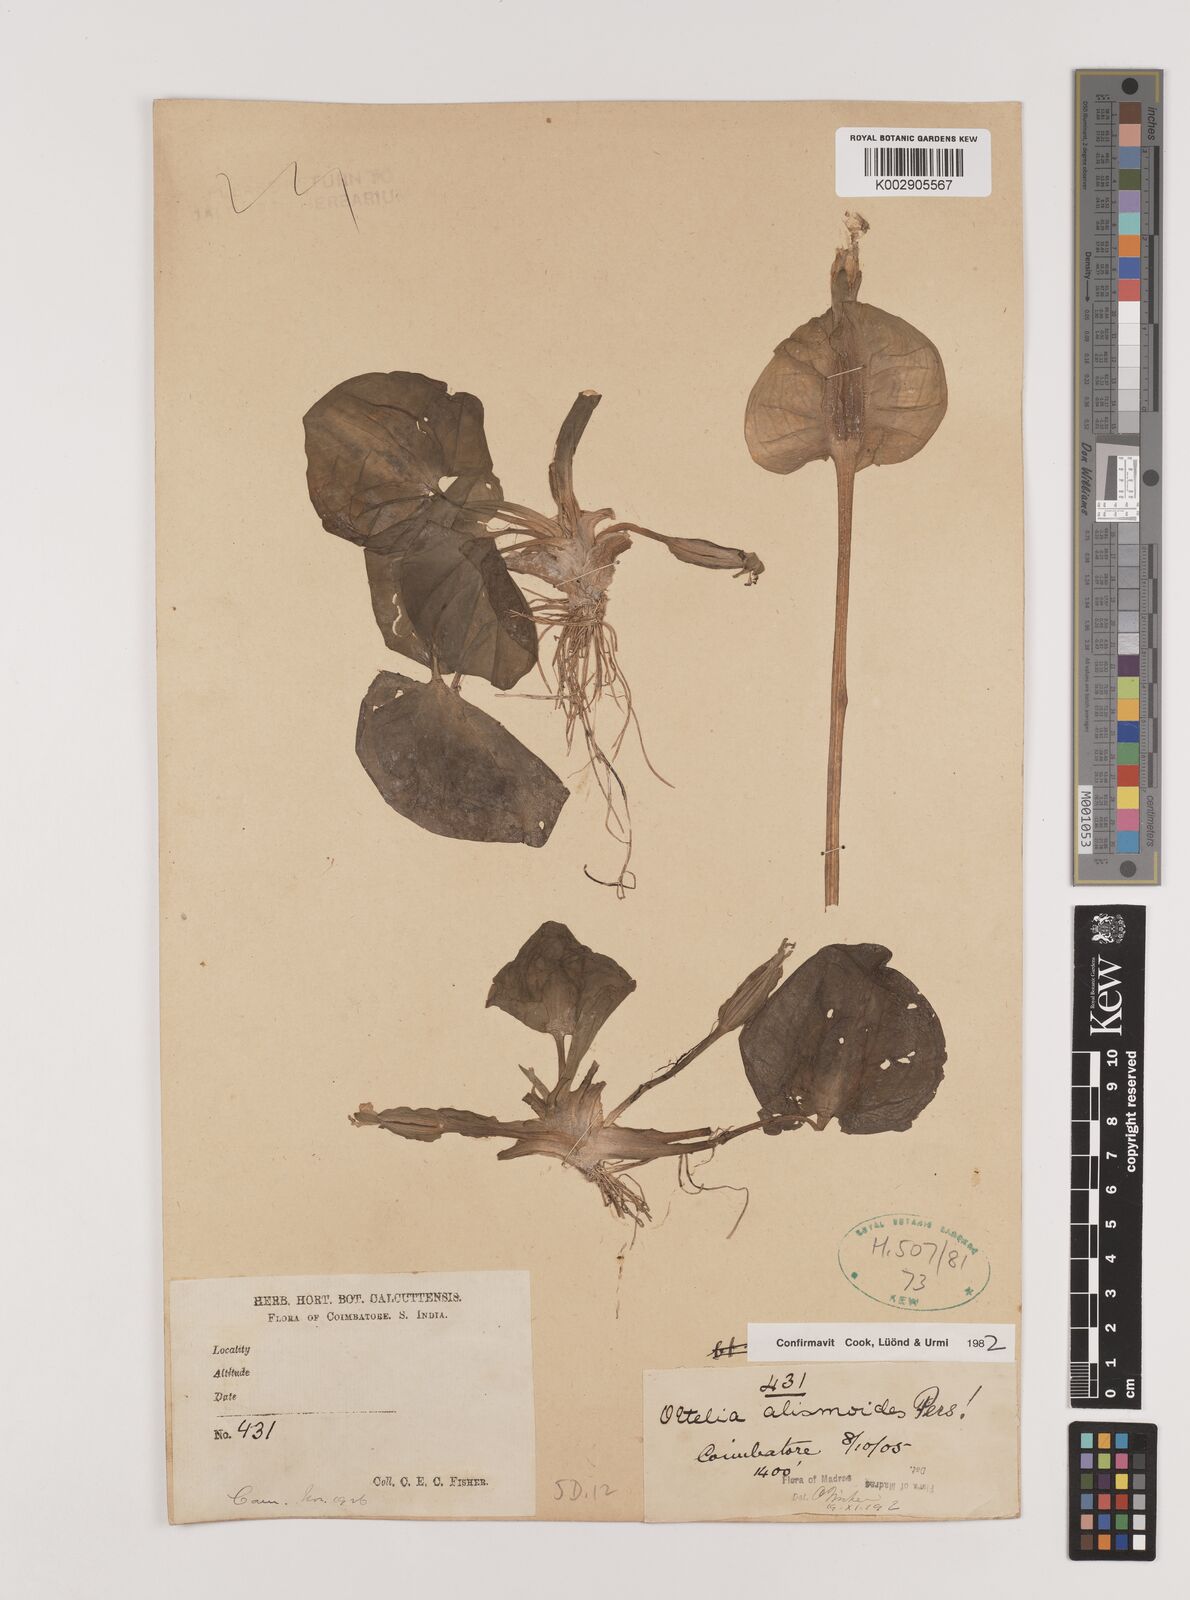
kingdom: Plantae
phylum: Tracheophyta
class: Liliopsida
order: Alismatales
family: Hydrocharitaceae
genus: Ottelia
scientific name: Ottelia alismoides
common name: Duck-lettuce
